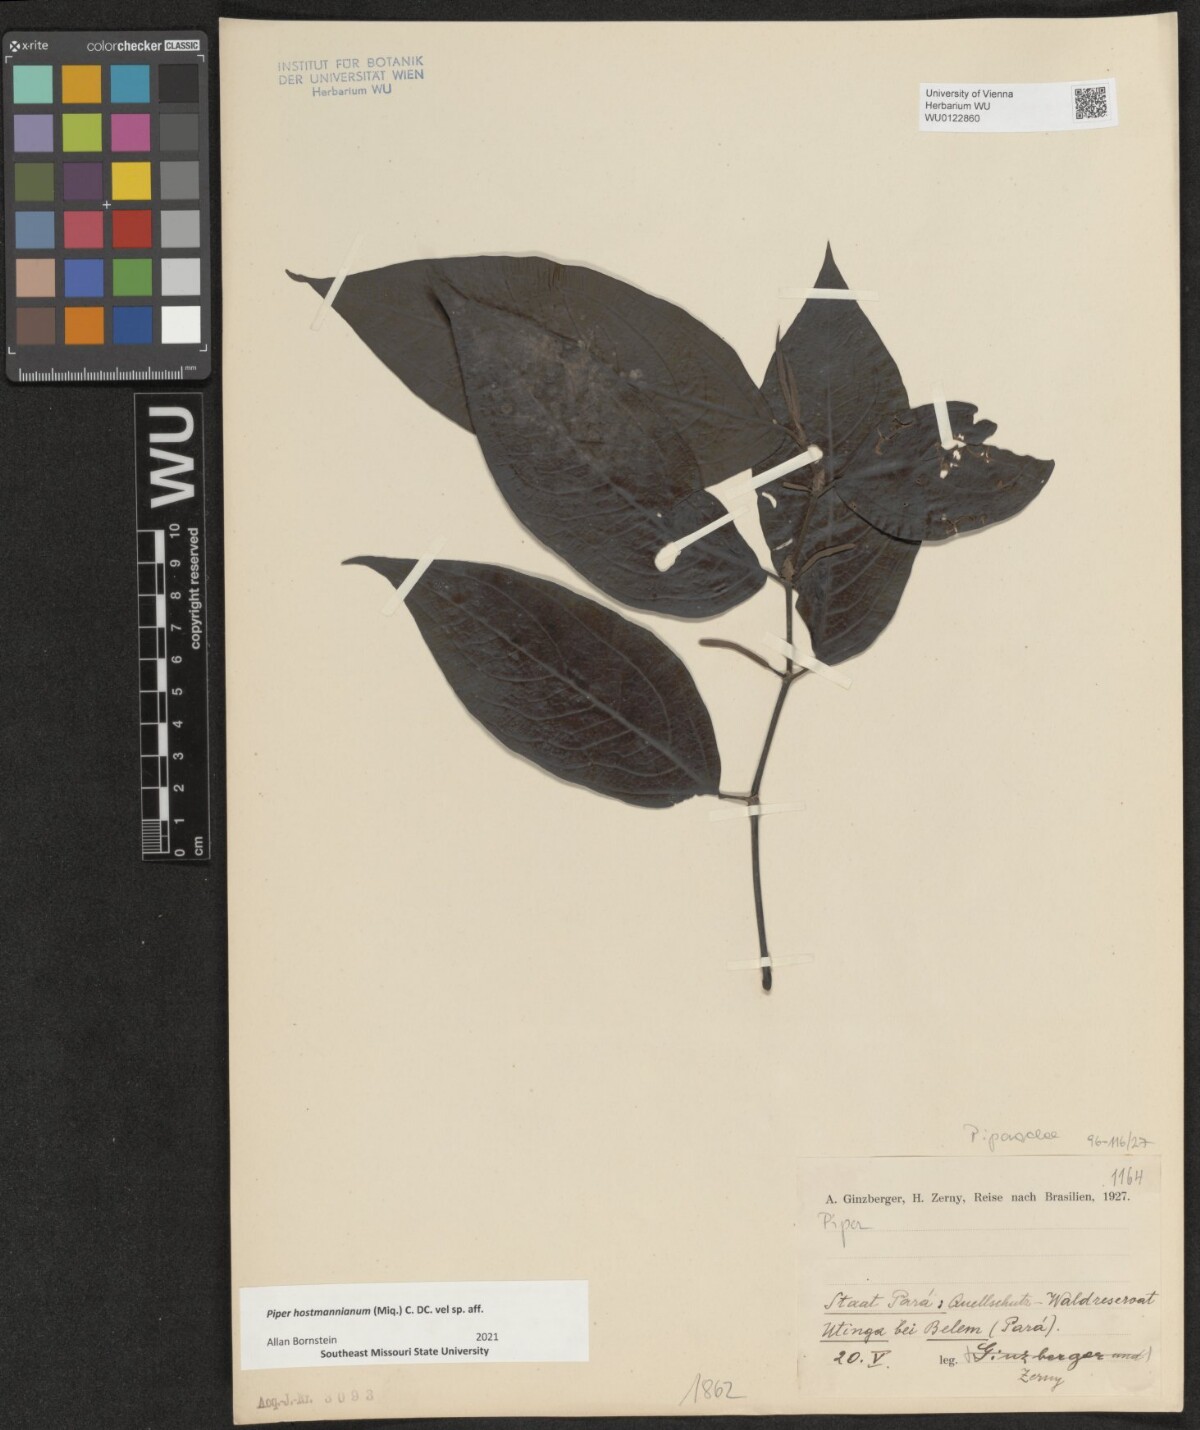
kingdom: Plantae
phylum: Tracheophyta
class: Magnoliopsida
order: Piperales
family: Piperaceae
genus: Piper
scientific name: Piper hostmannianum
